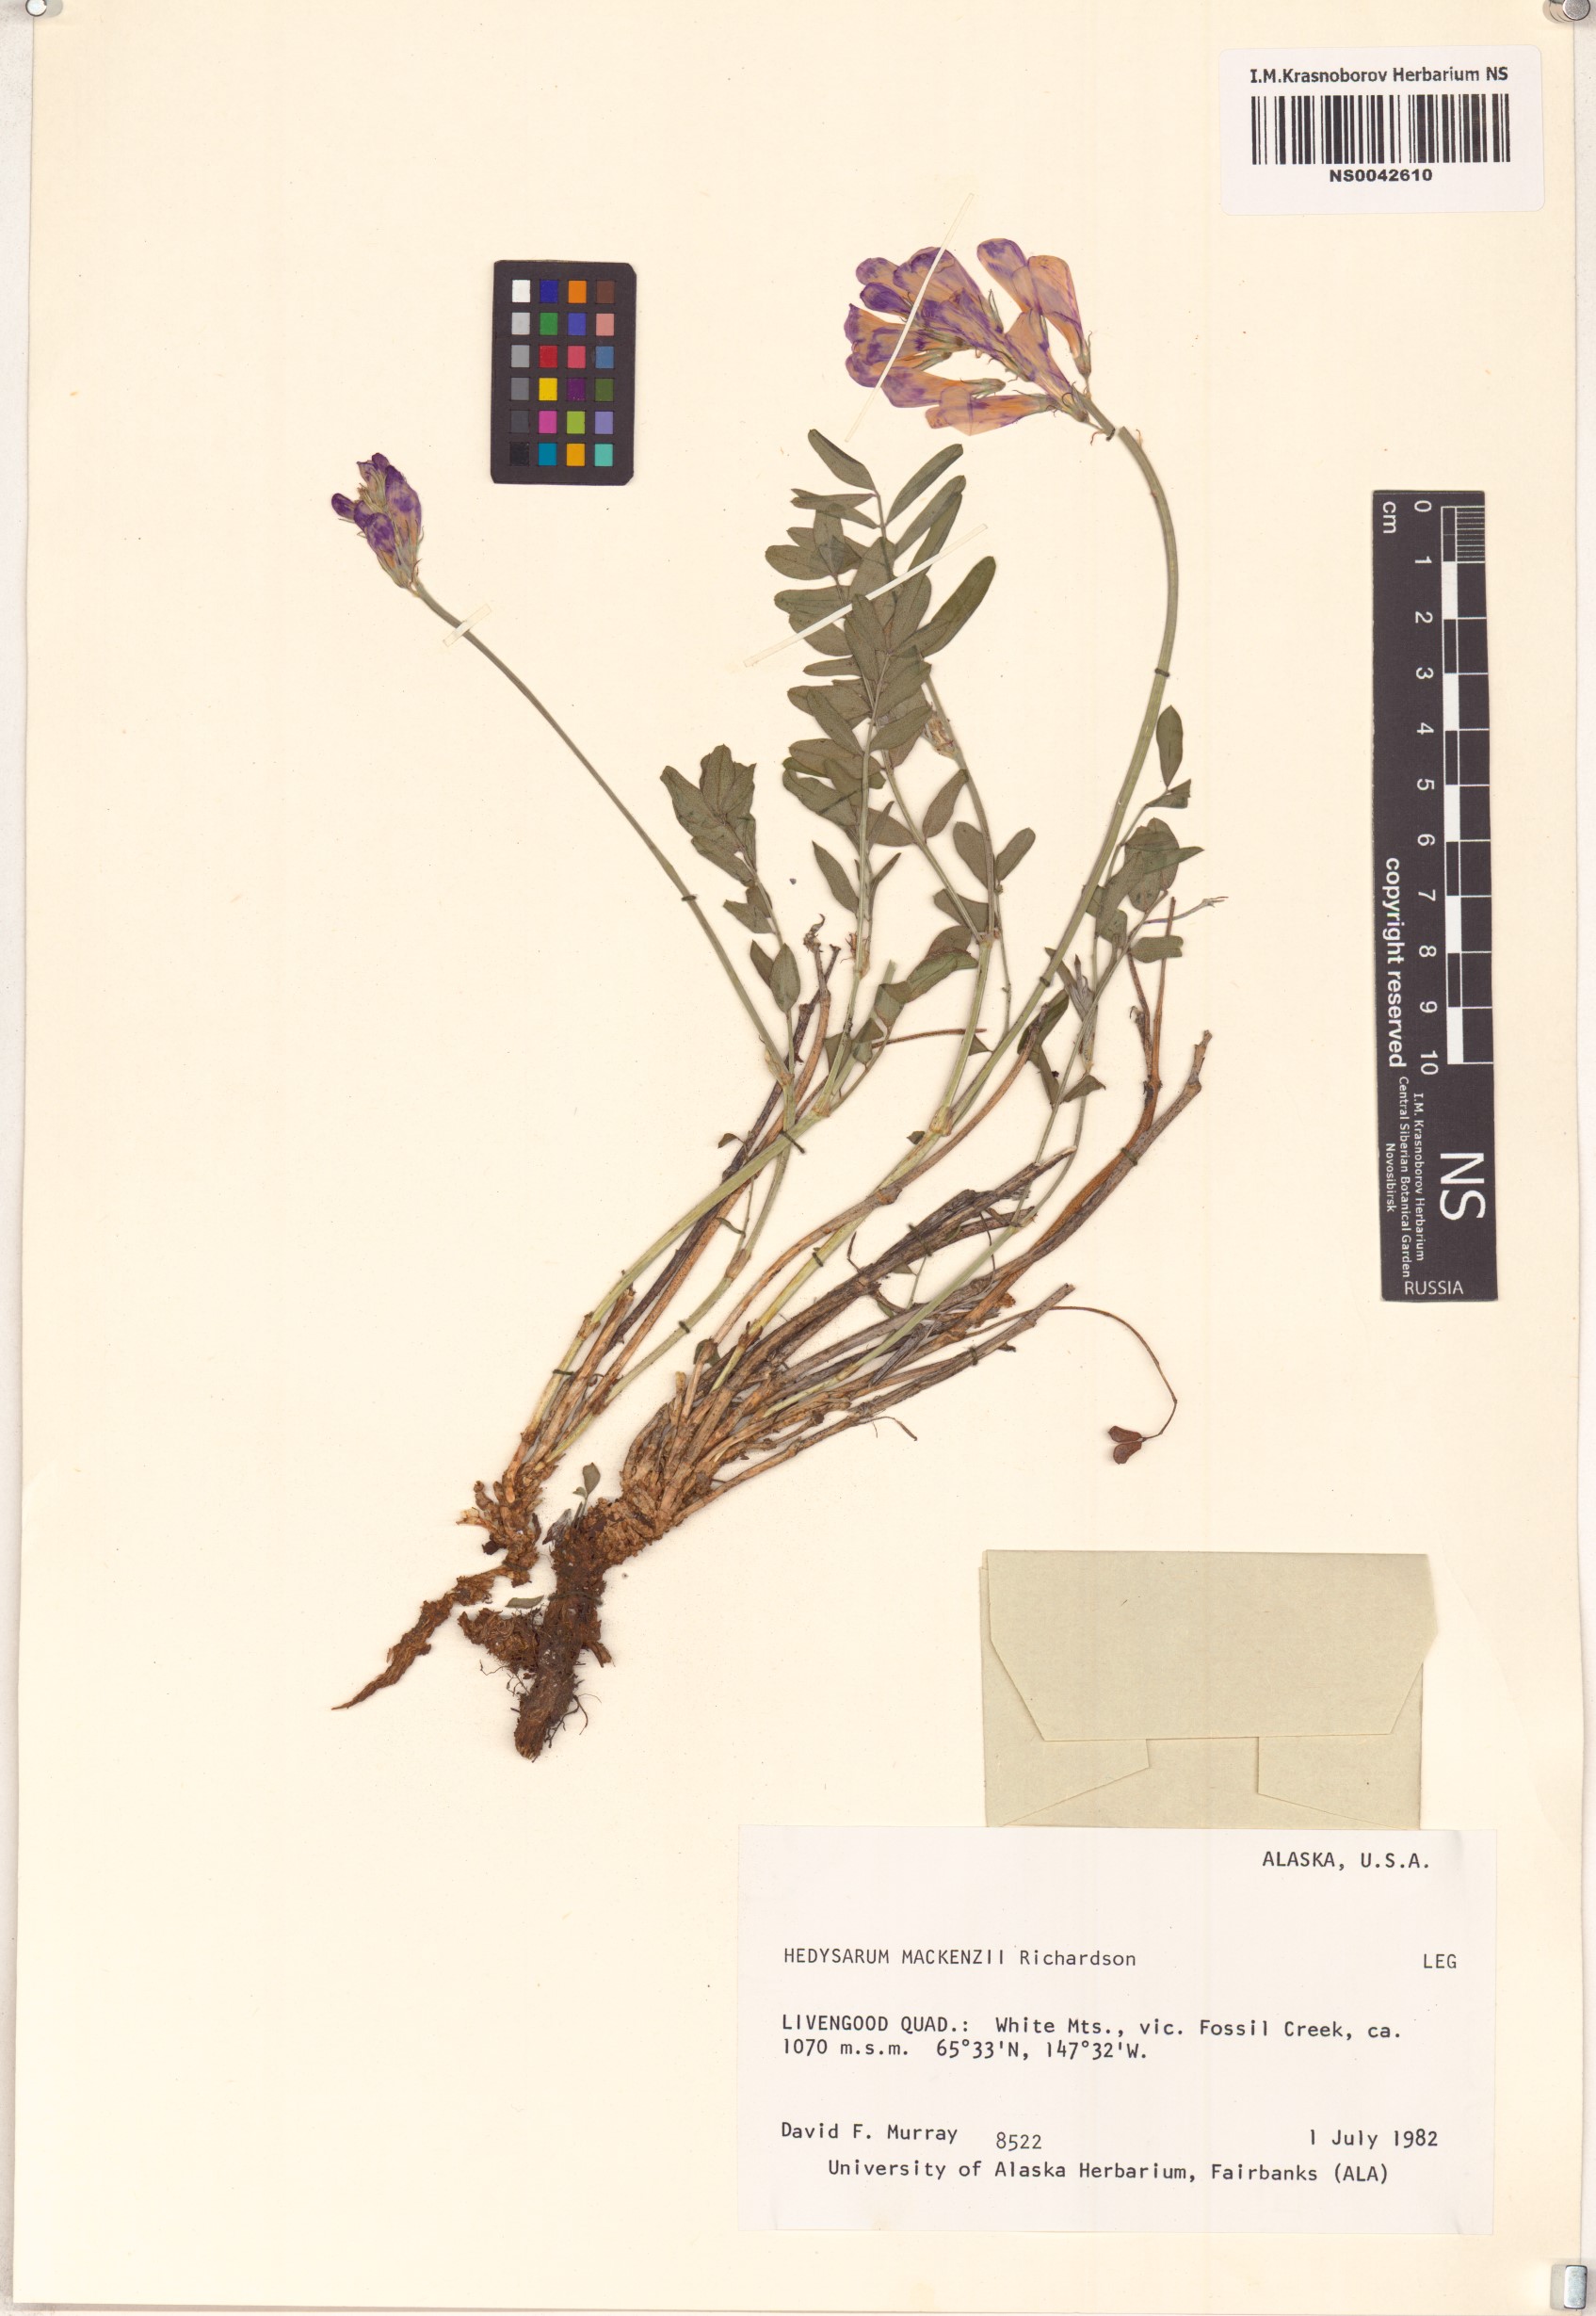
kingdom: Plantae
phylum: Tracheophyta
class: Magnoliopsida
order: Fabales
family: Fabaceae
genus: Hedysarum
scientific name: Hedysarum boreale
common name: Northern sweet-vetch
